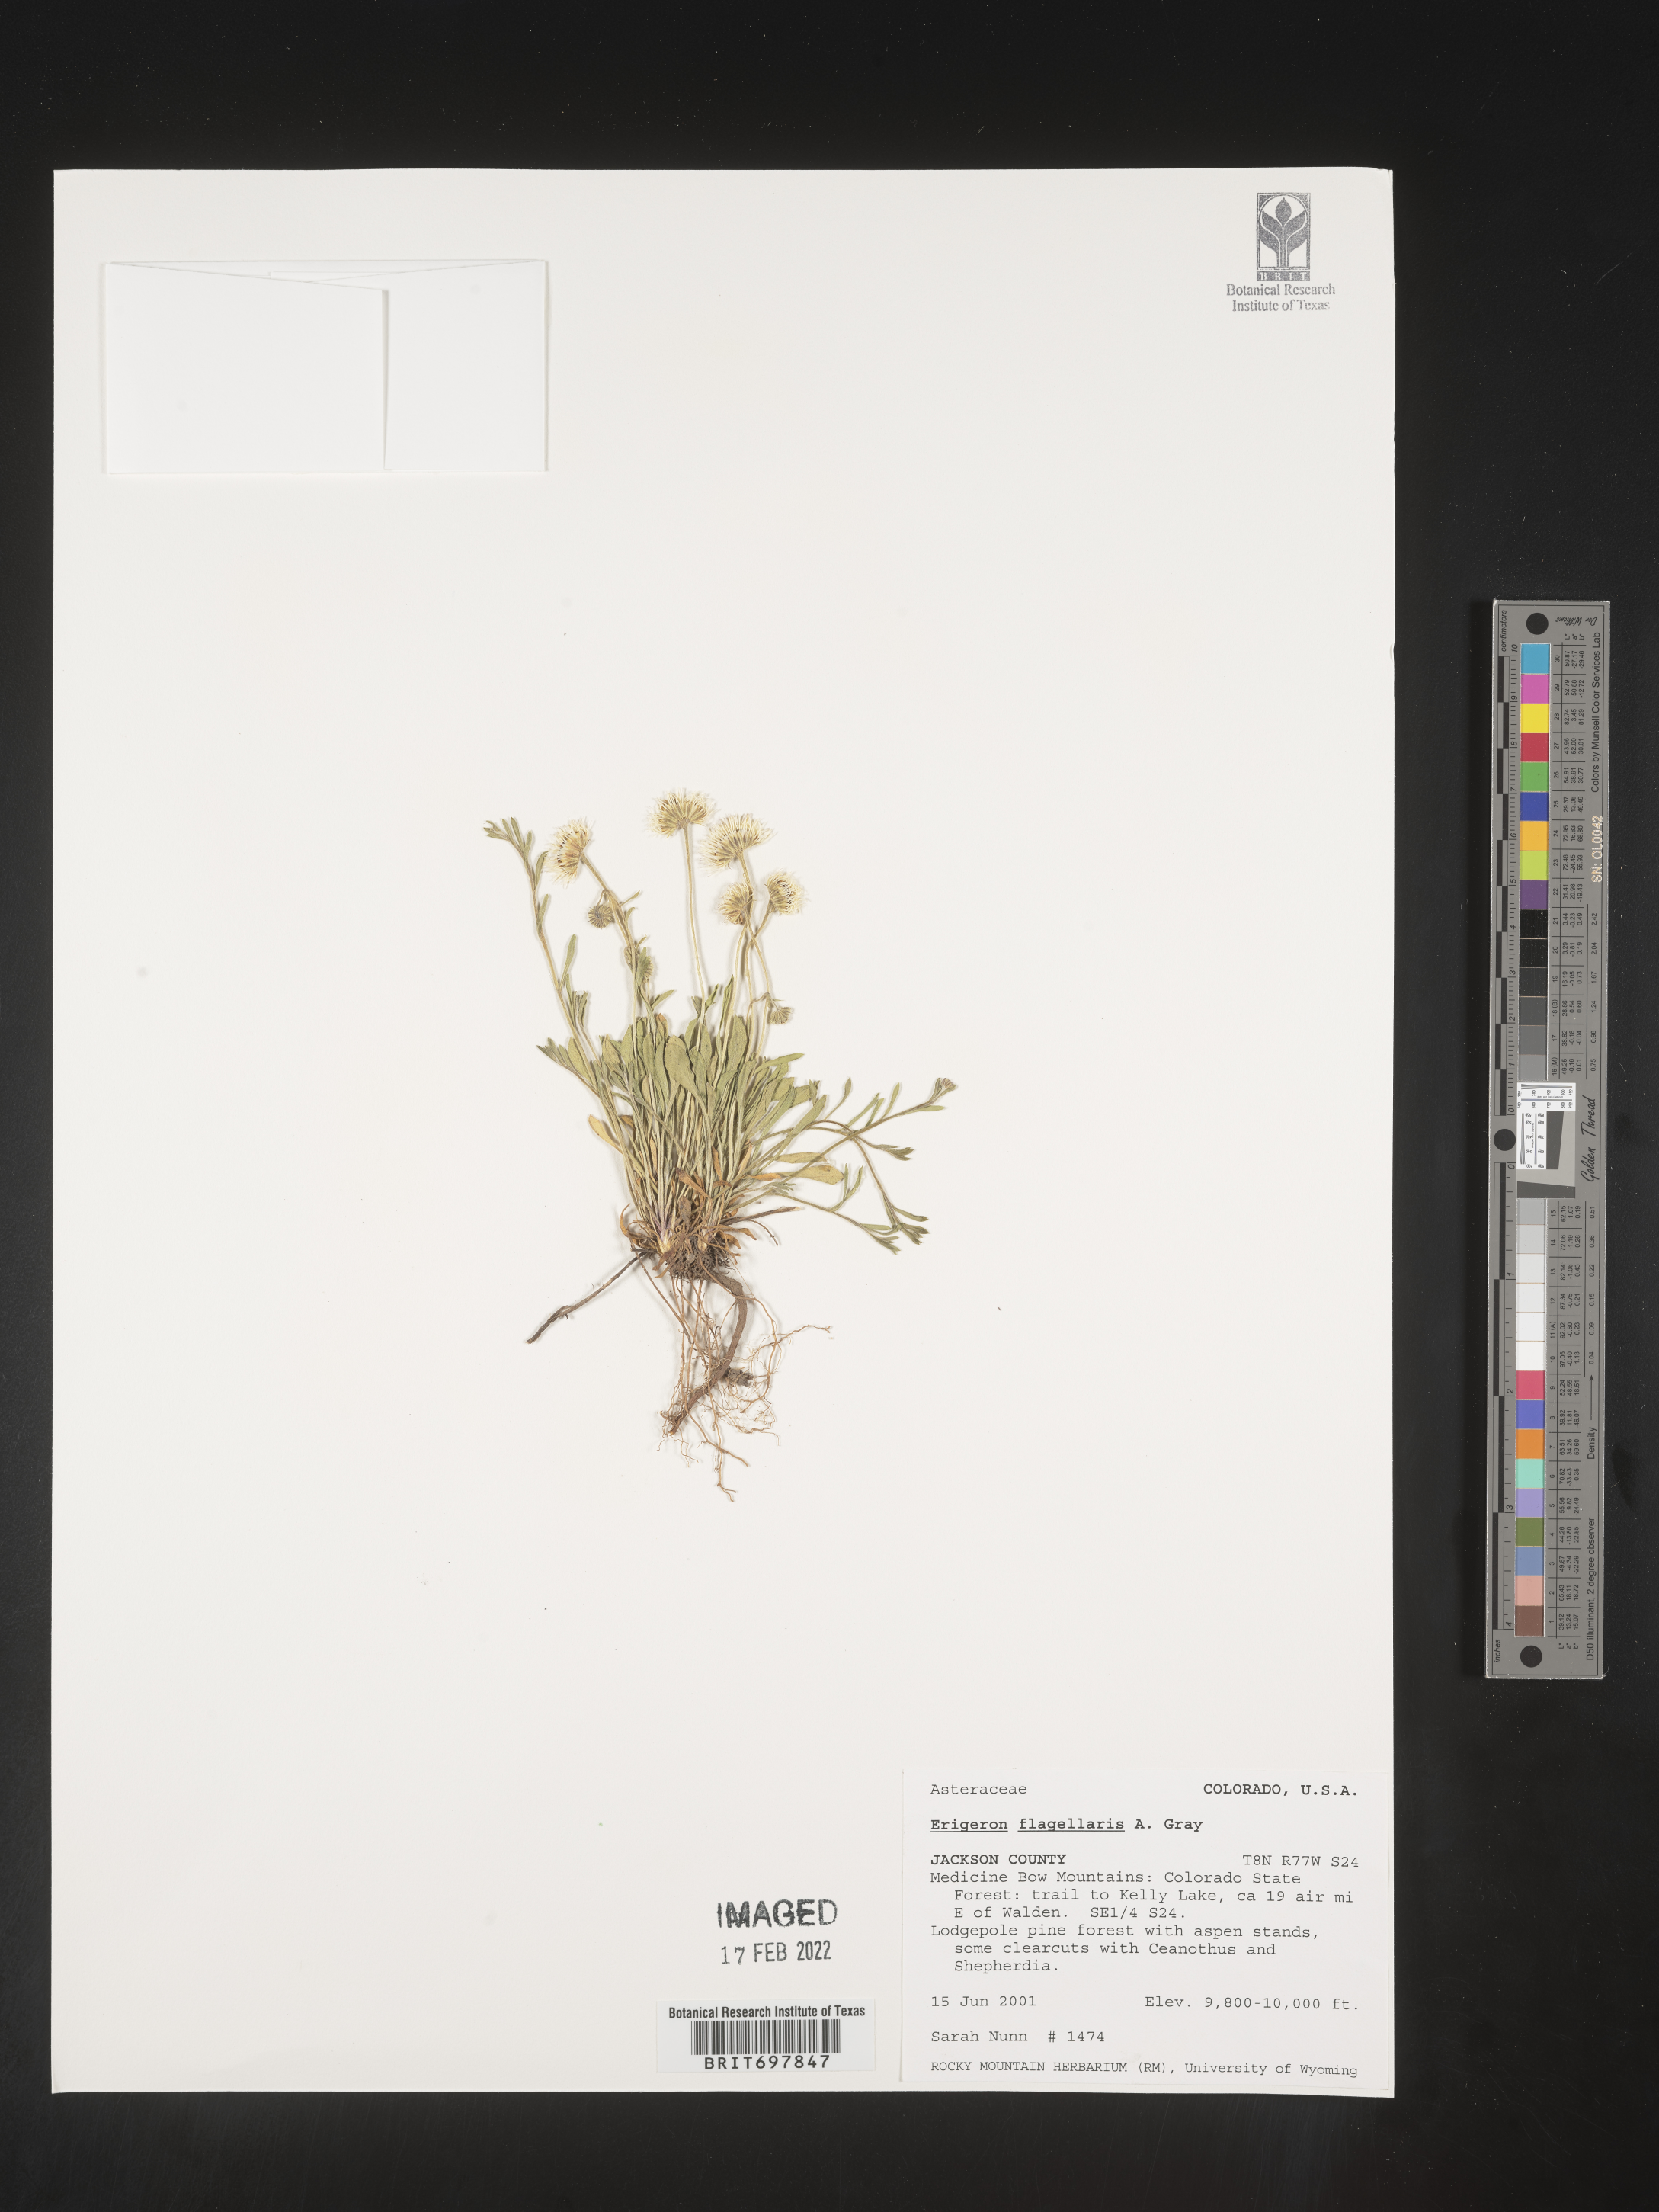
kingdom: Plantae
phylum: Tracheophyta
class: Magnoliopsida
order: Asterales
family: Asteraceae
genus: Erigeron
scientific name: Erigeron flagellaris
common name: Running fleabane
